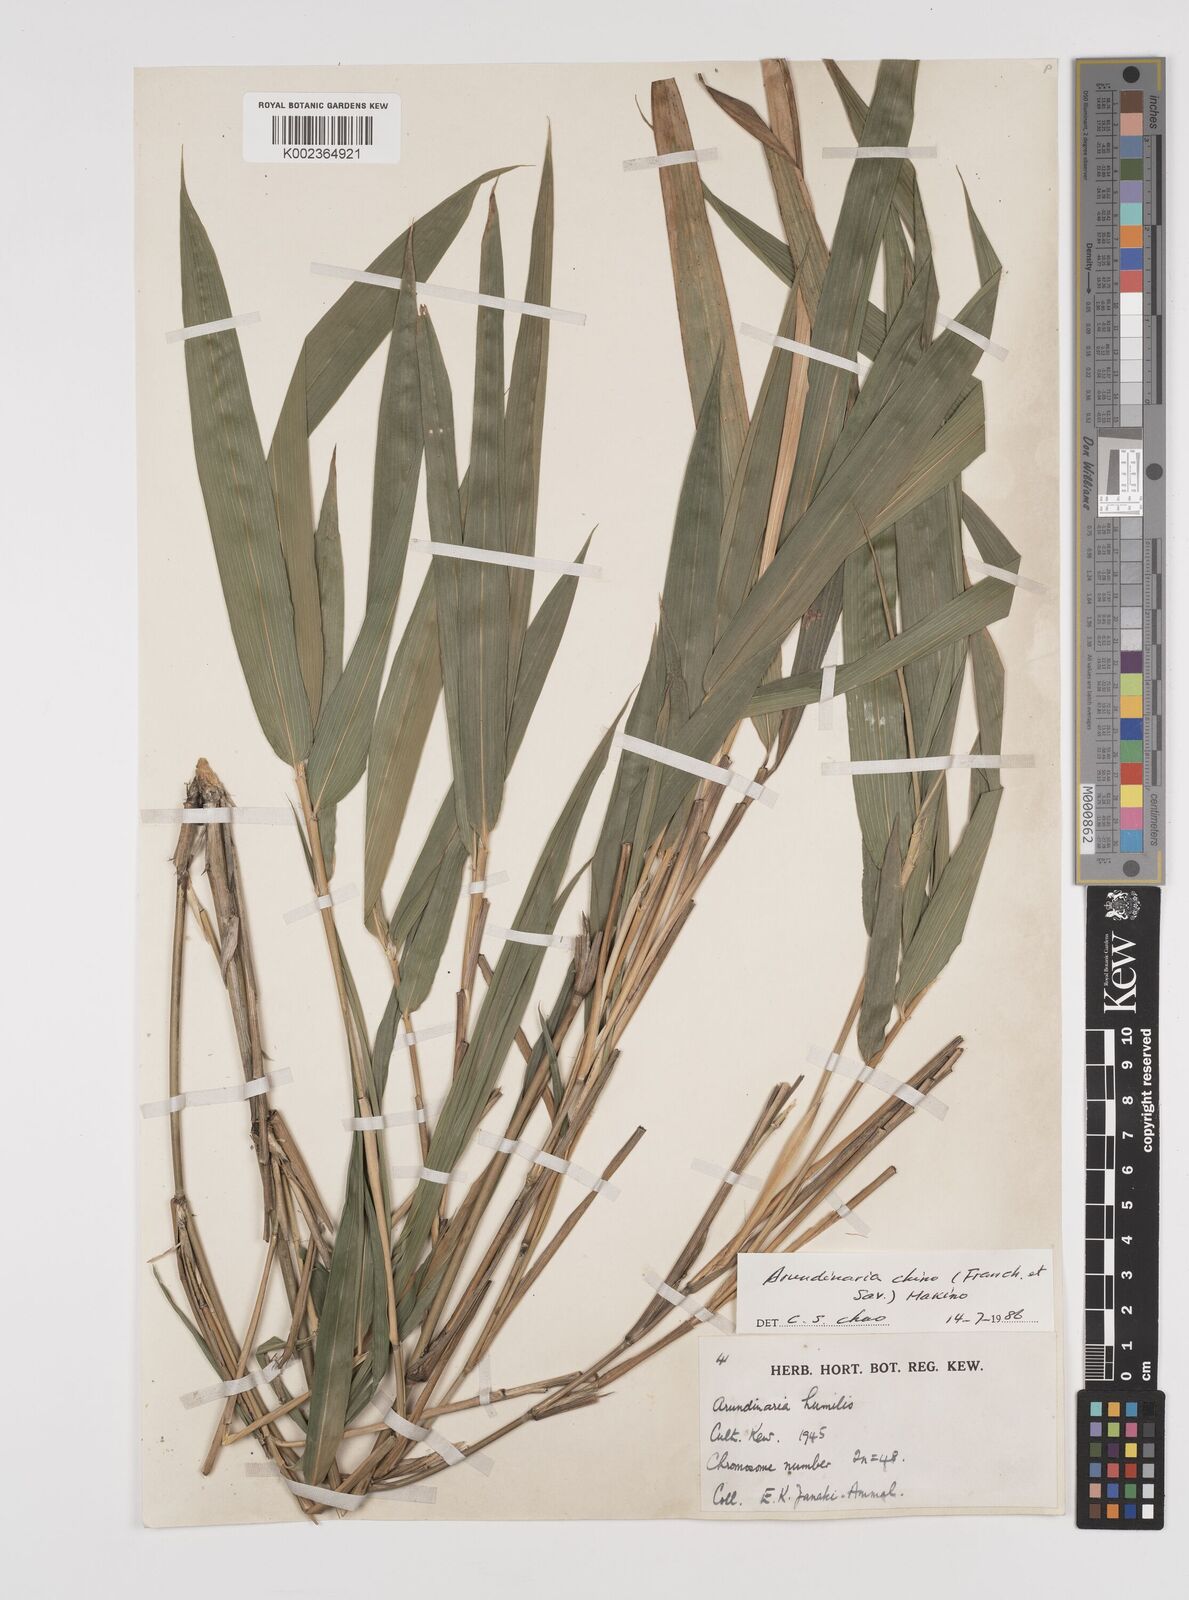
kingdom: Plantae
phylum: Tracheophyta
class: Liliopsida
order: Poales
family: Poaceae
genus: Pleioblastus
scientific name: Pleioblastus argenteostriatus
